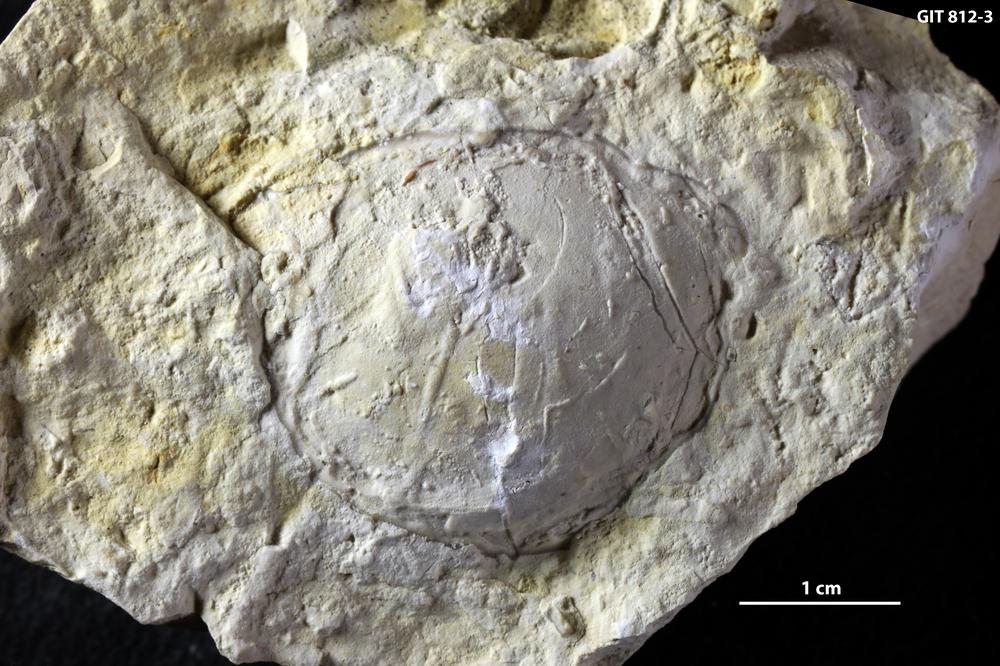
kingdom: Animalia
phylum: Arthropoda
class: Trilobita
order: Corynexochida
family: Illaenidae
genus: Parillaenus
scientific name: Parillaenus
